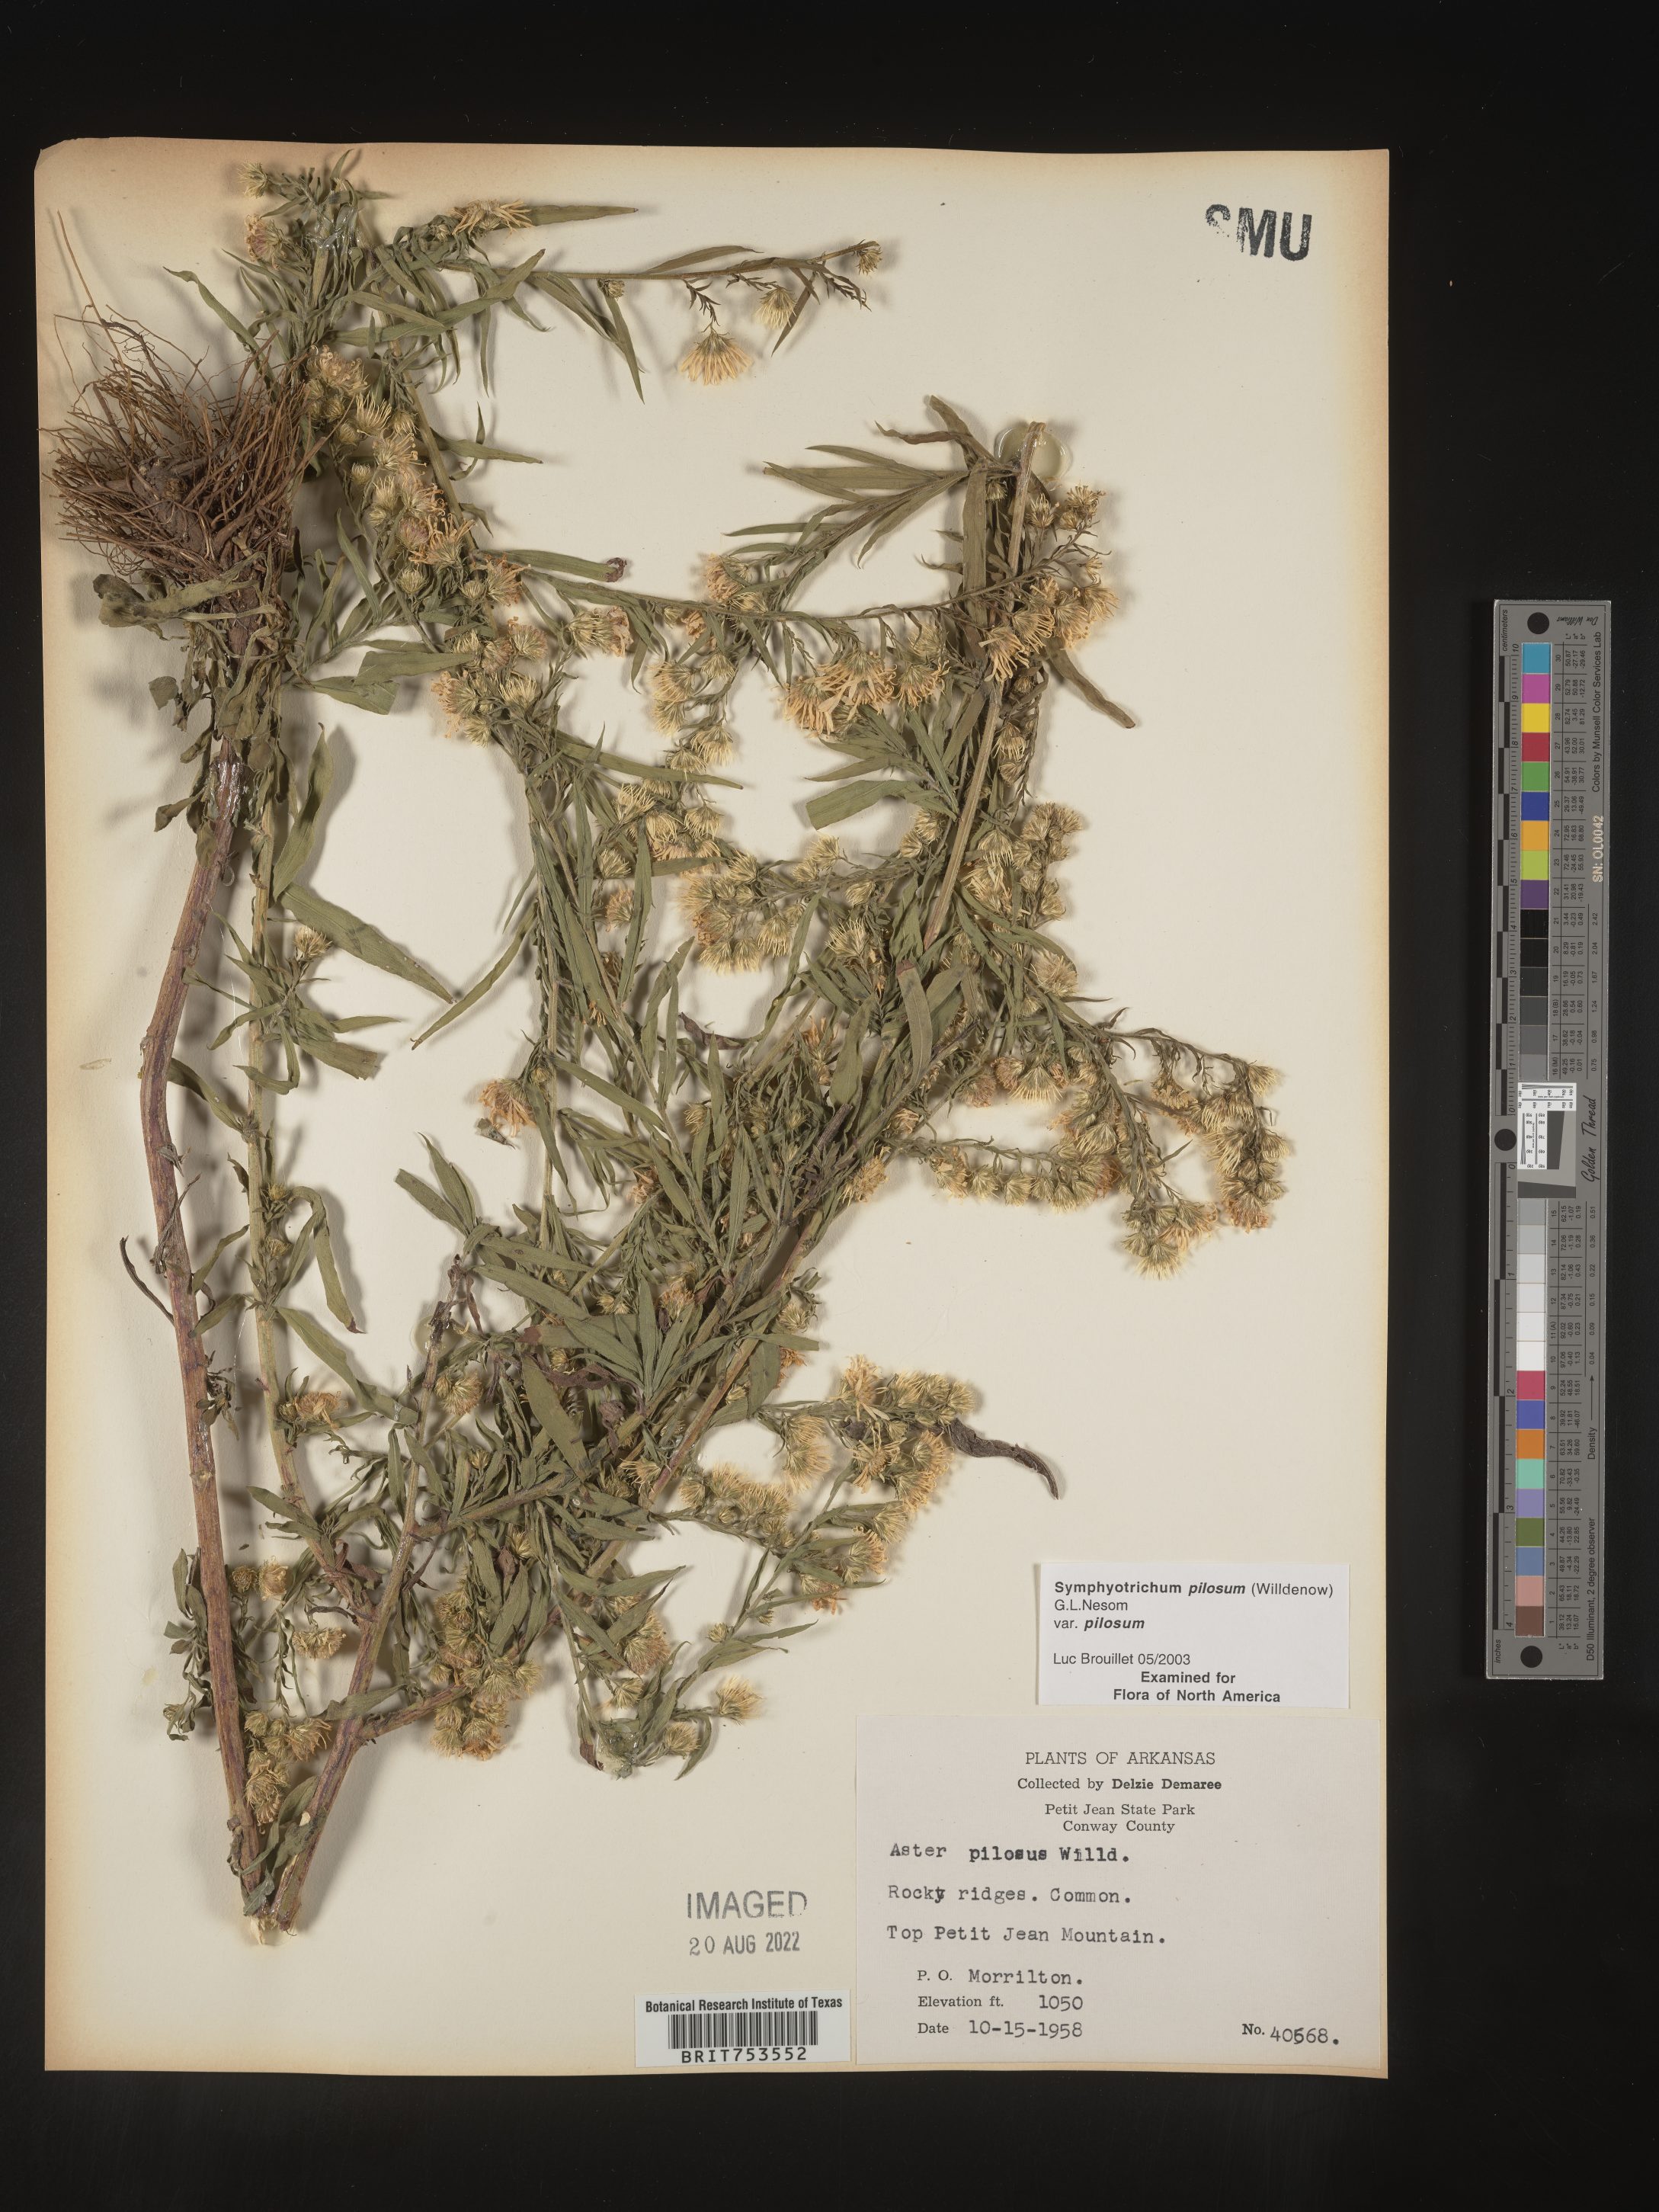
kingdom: Plantae
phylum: Tracheophyta
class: Magnoliopsida
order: Asterales
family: Asteraceae
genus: Symphyotrichum
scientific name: Symphyotrichum pilosum
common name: Awl aster
